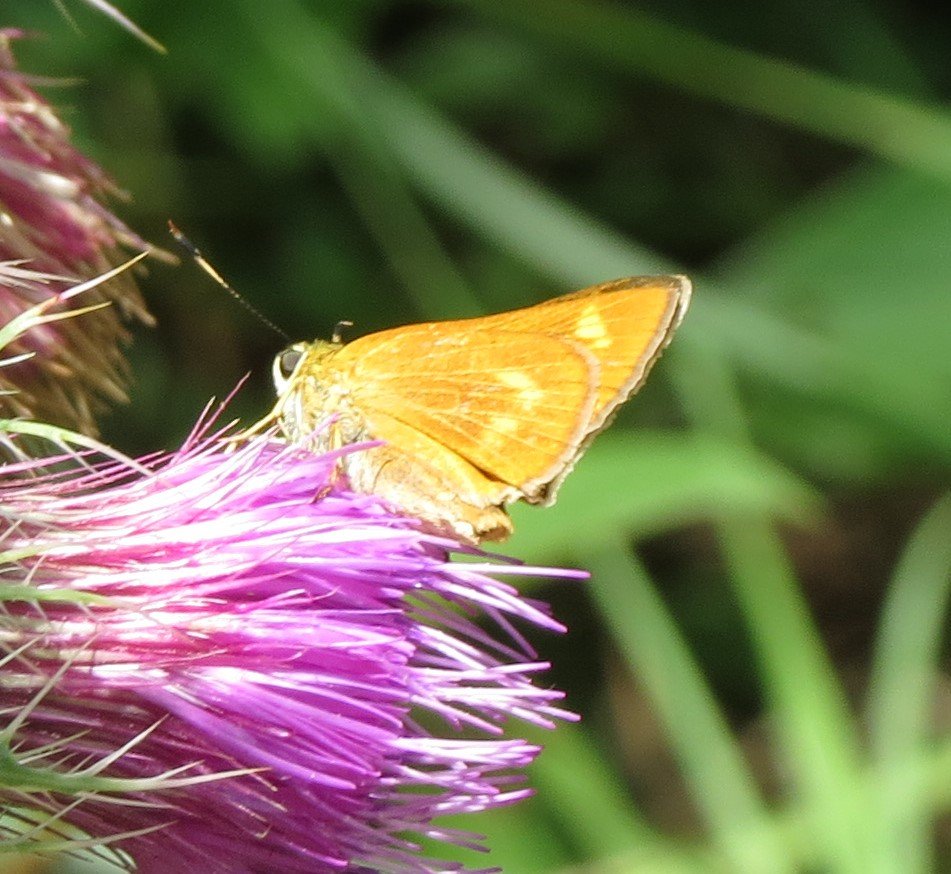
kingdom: Animalia
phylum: Arthropoda
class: Insecta
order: Lepidoptera
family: Hesperiidae
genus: Problema
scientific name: Problema byssus
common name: Byssus Skipper
